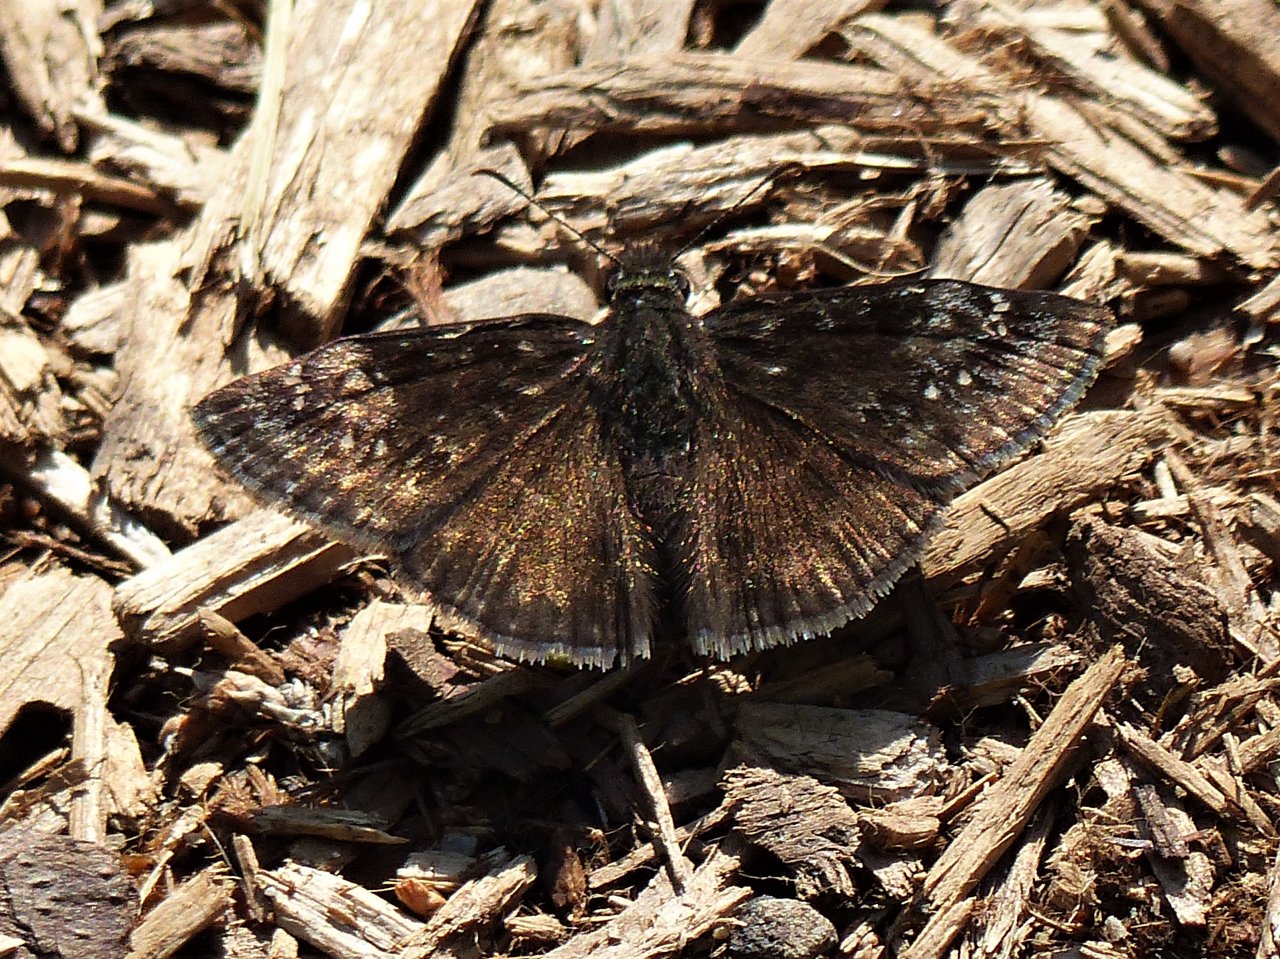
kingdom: Animalia
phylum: Arthropoda
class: Insecta
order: Lepidoptera
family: Hesperiidae
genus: Gesta
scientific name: Gesta
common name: Wild Indigo Duskywing
